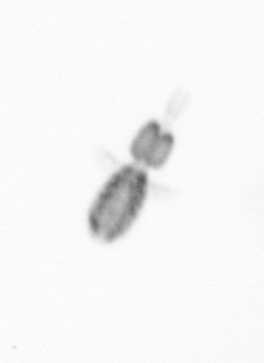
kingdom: Animalia
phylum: Arthropoda
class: Copepoda
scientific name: Copepoda
